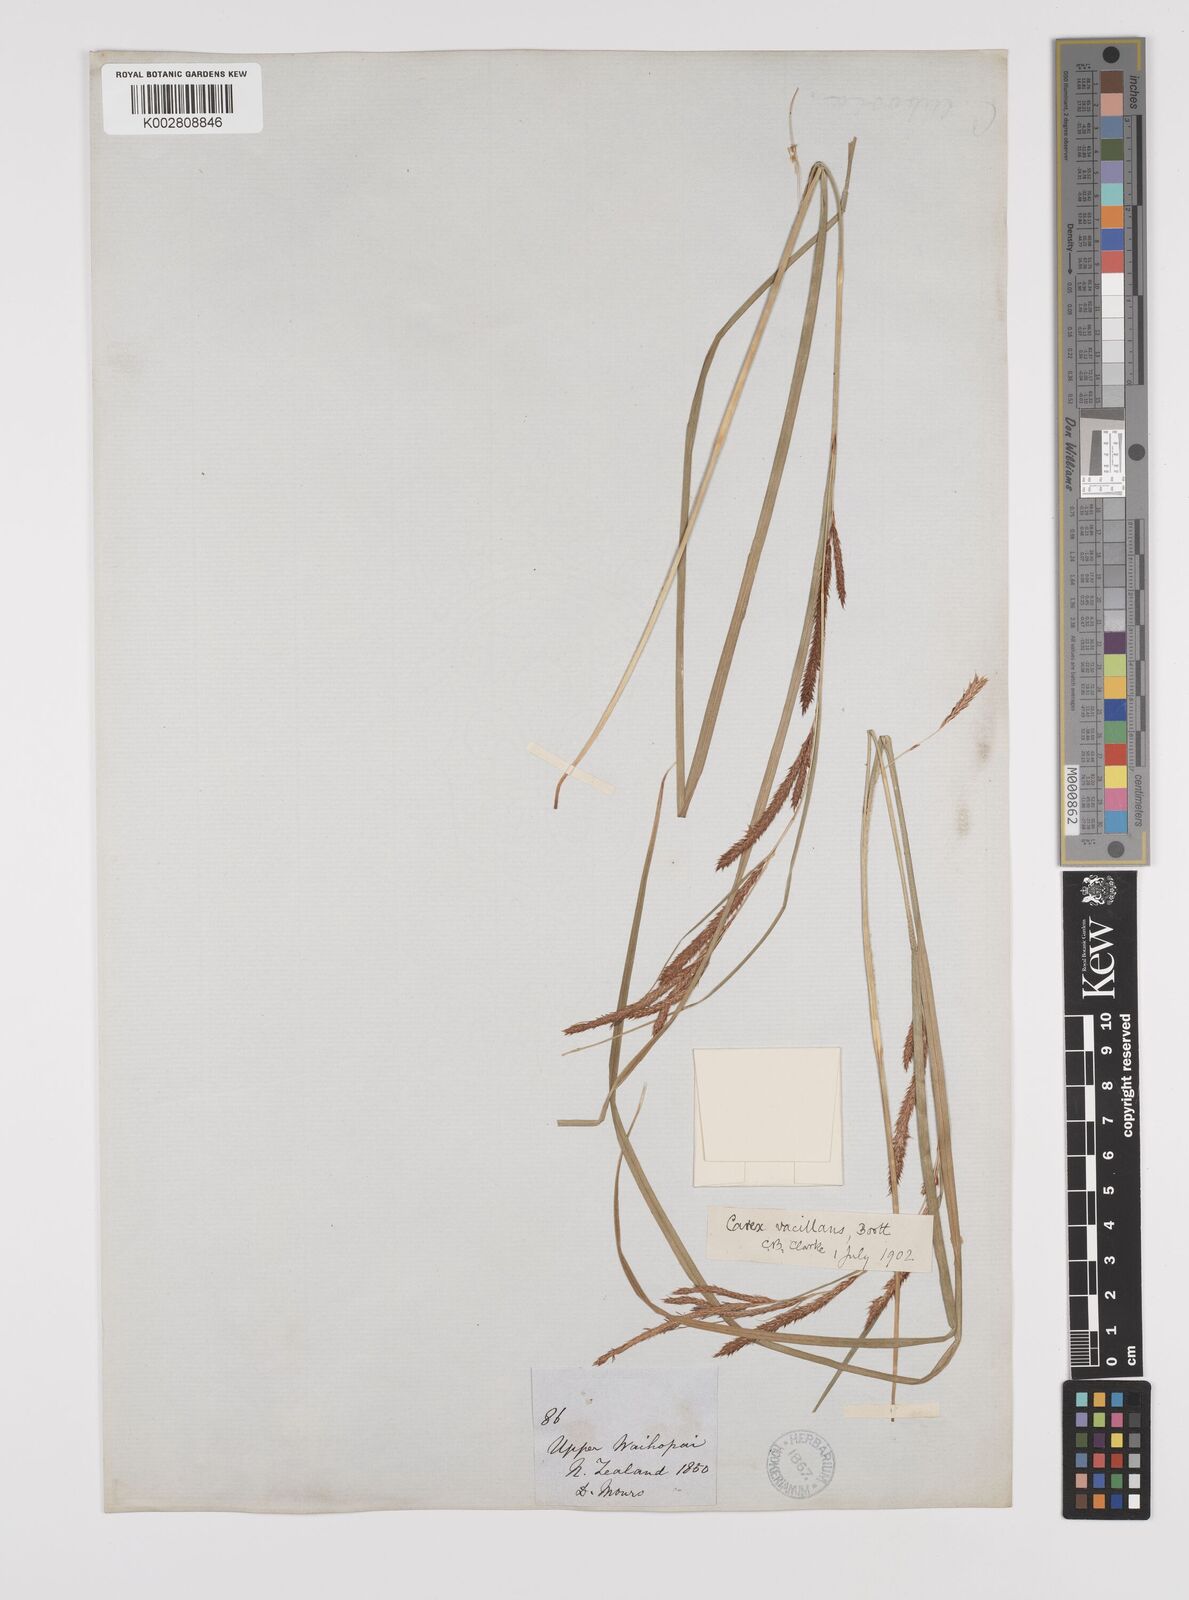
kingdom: Plantae
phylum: Tracheophyta
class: Liliopsida
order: Poales
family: Cyperaceae
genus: Carex
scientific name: Carex spinirostris
